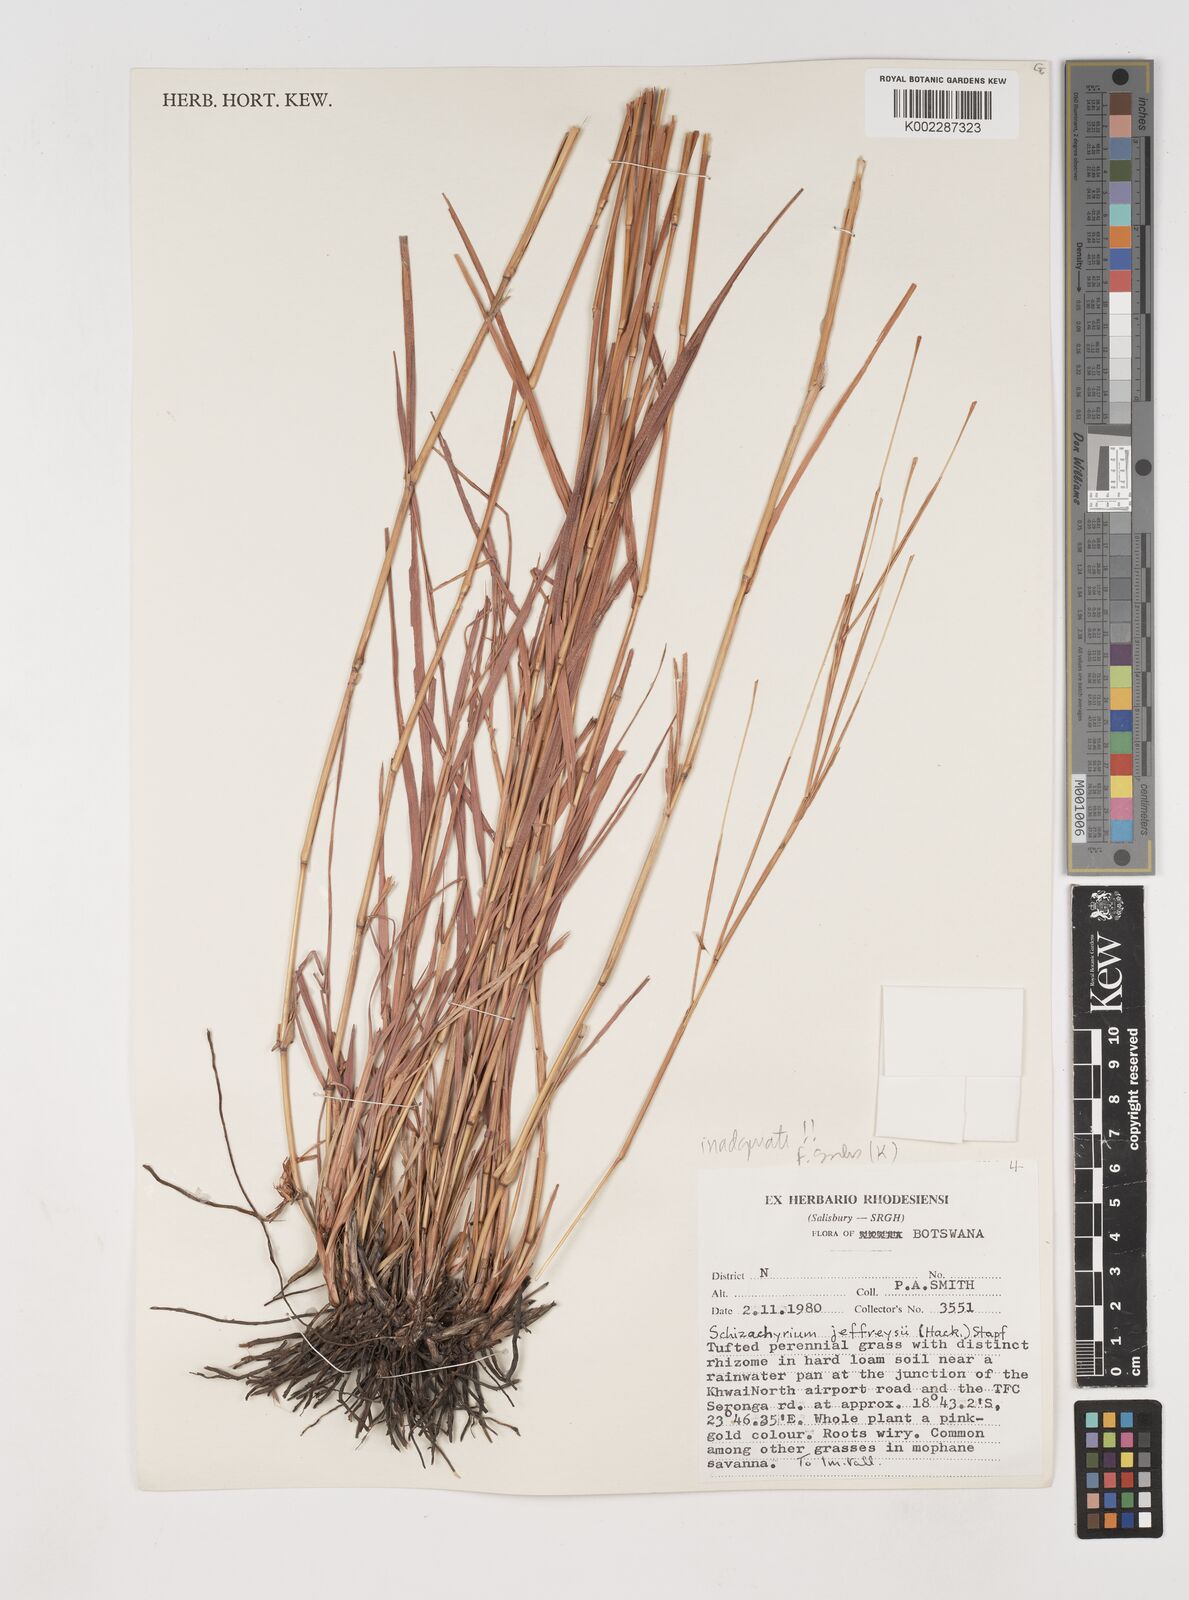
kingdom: Plantae
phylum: Tracheophyta
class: Liliopsida
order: Poales
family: Poaceae
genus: Schizachyrium
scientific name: Schizachyrium jeffreysii
